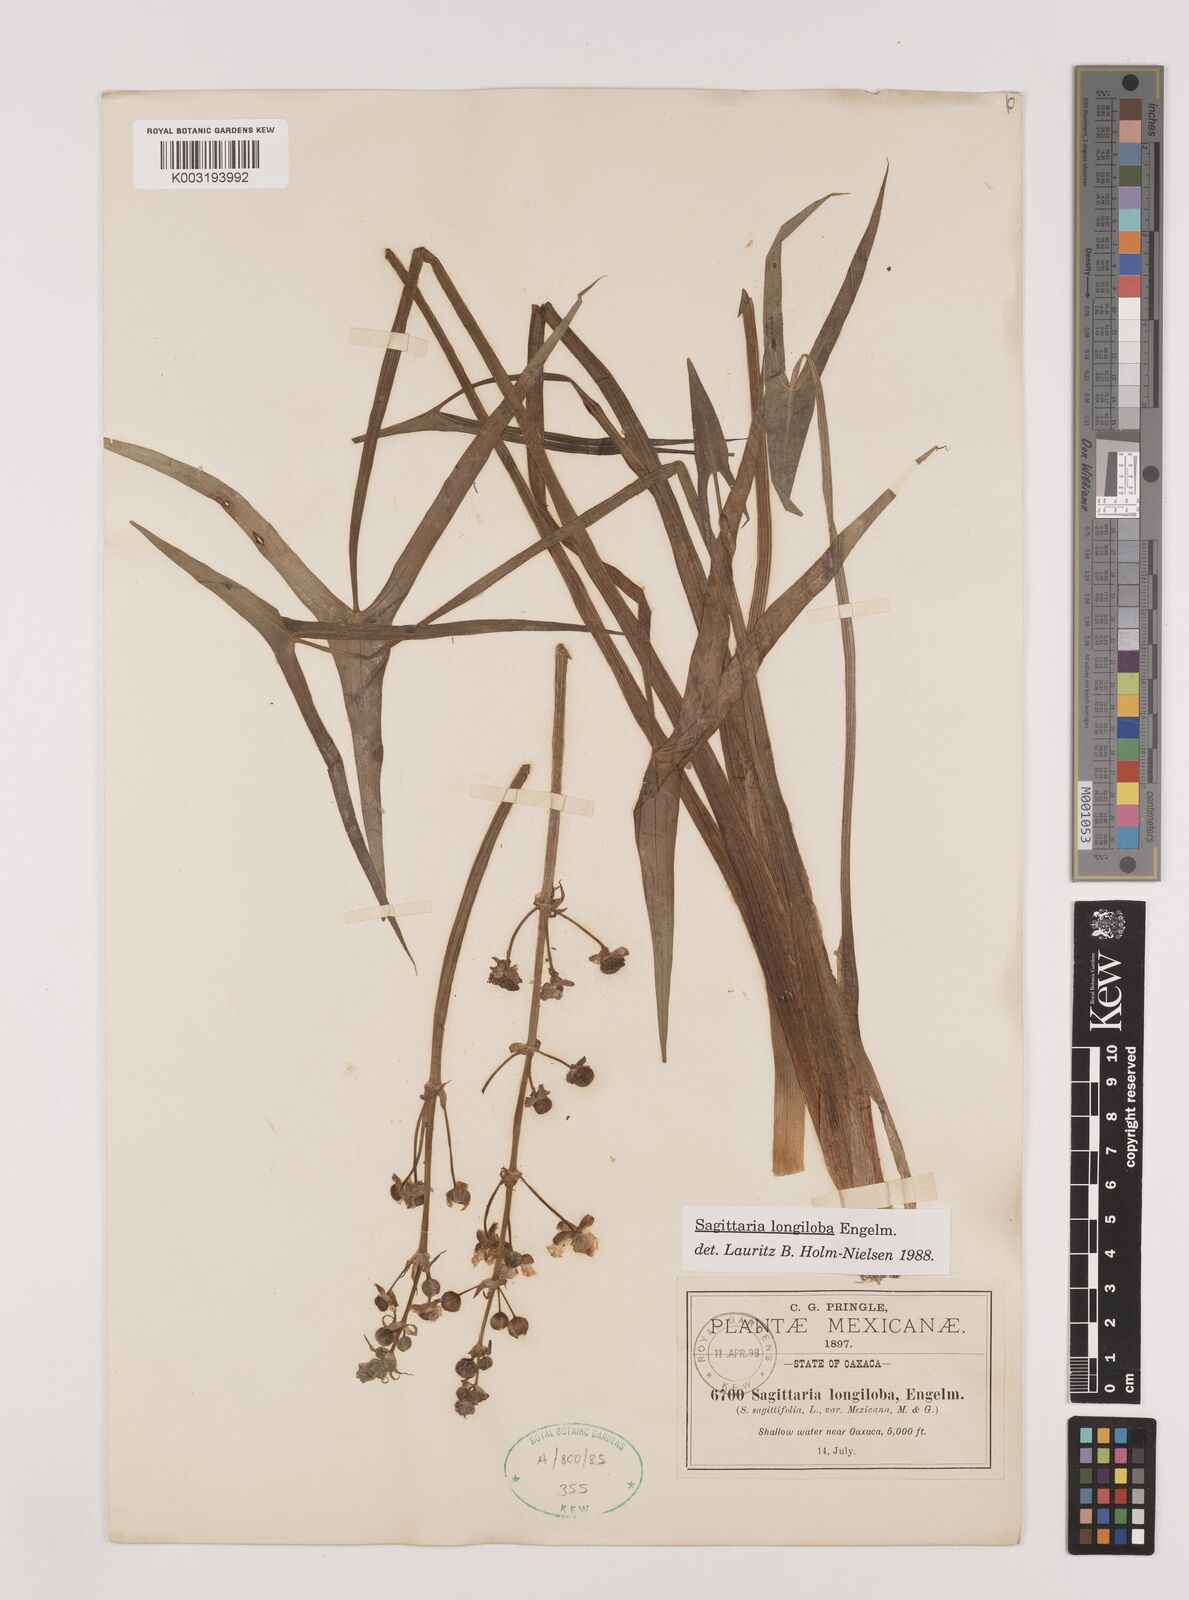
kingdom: Plantae
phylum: Tracheophyta
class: Liliopsida
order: Alismatales
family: Alismataceae
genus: Sagittaria
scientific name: Sagittaria longiloba
